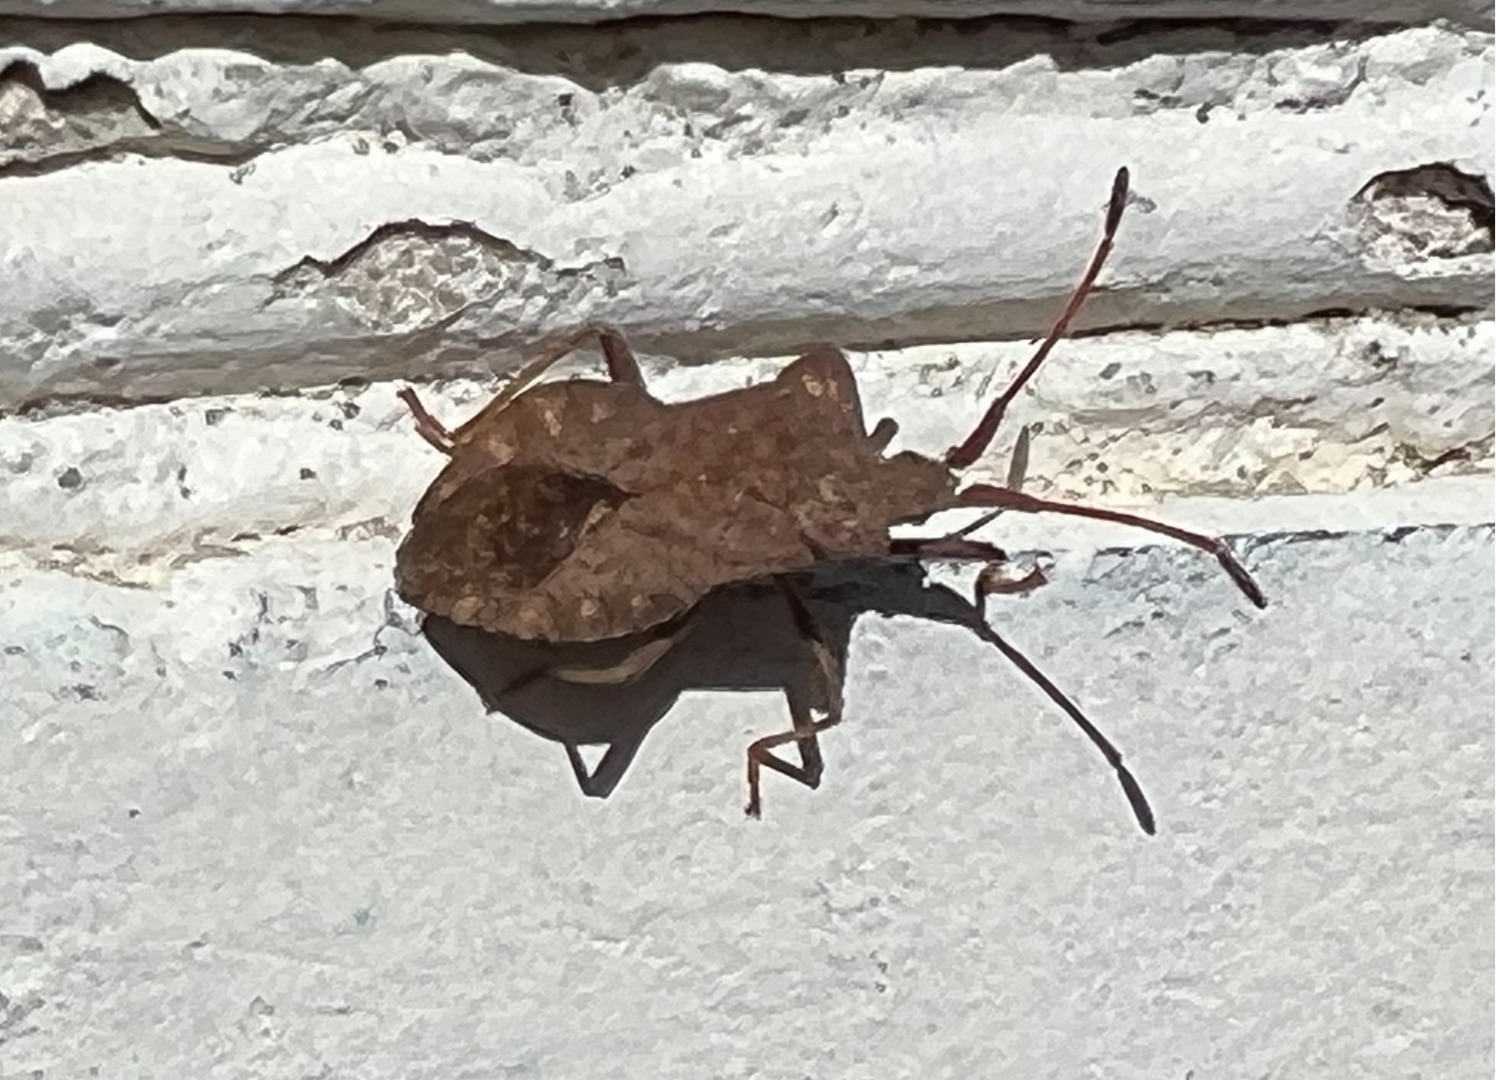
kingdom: Animalia
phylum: Arthropoda
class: Insecta
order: Hemiptera
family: Coreidae
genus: Coreus
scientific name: Coreus marginatus
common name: Skræppetæge
